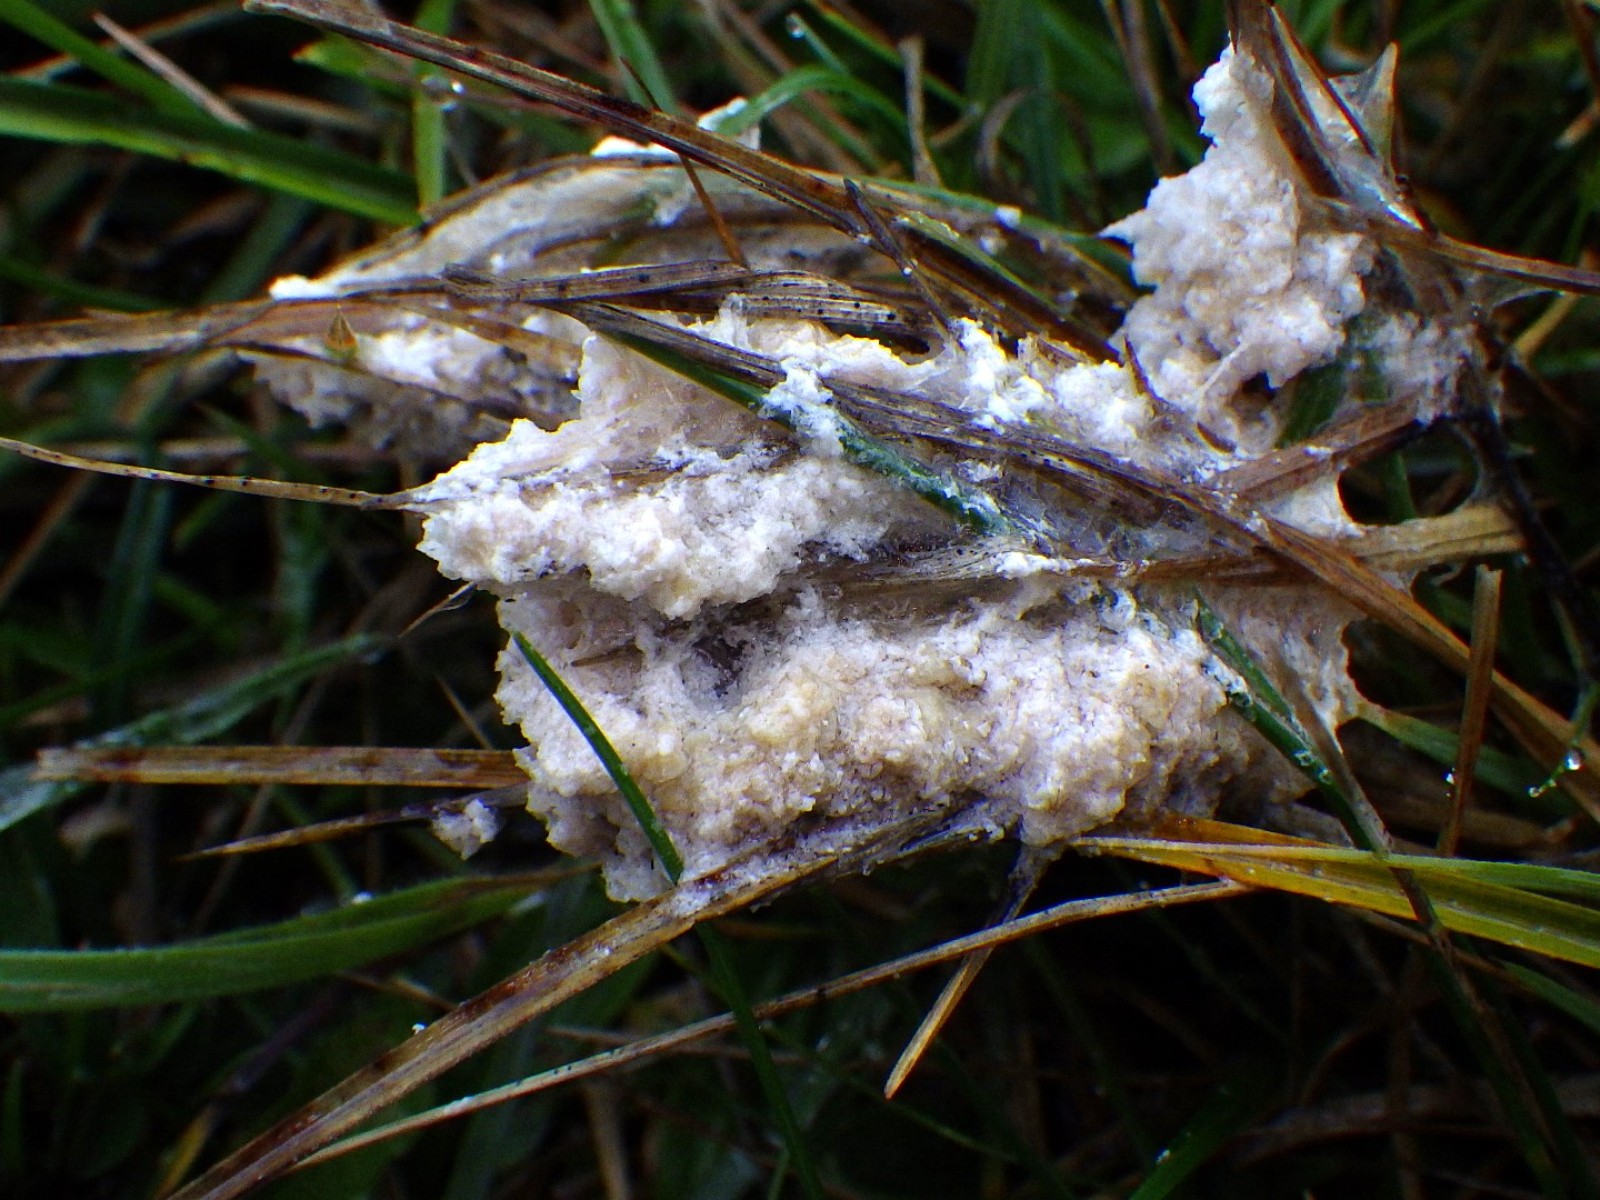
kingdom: Protozoa
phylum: Mycetozoa
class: Myxomycetes
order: Physarales
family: Physaraceae
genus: Didymium
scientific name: Didymium
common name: urteskum
